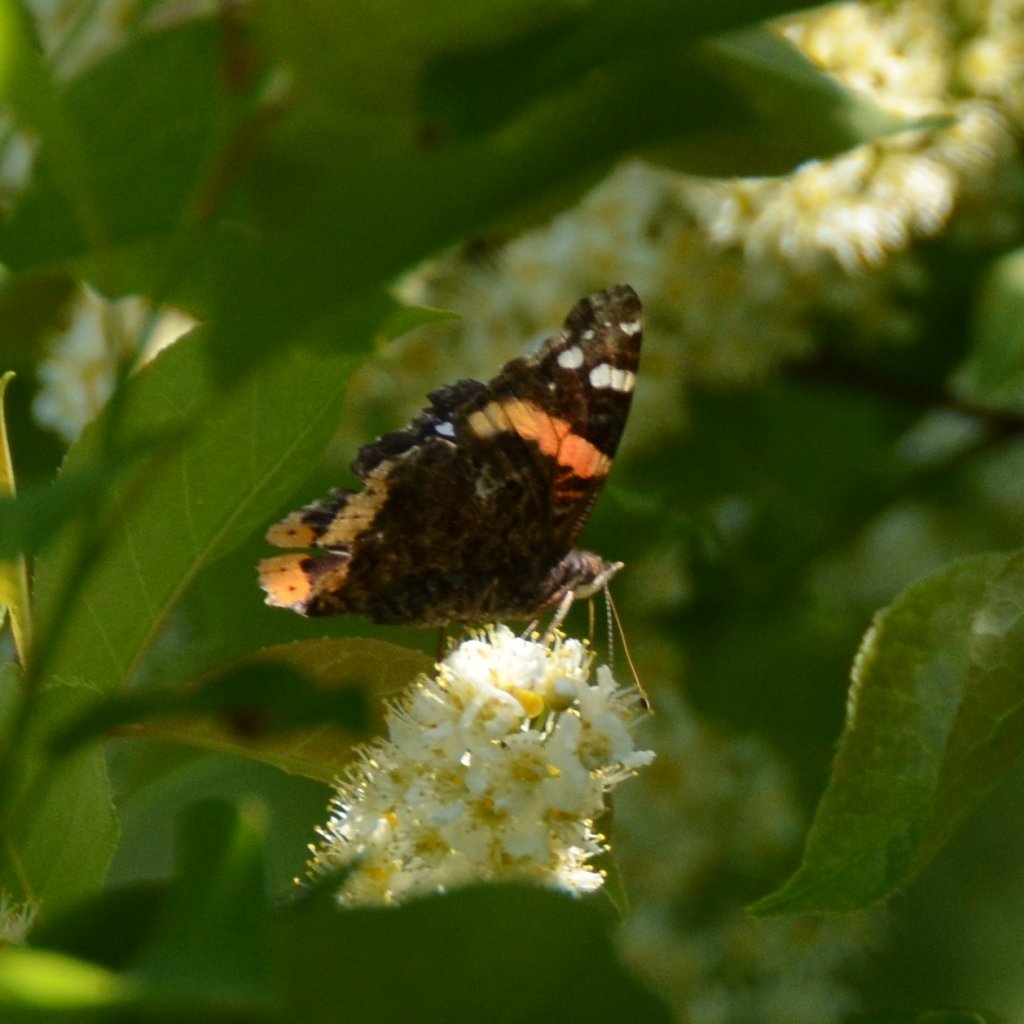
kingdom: Animalia
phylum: Arthropoda
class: Insecta
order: Lepidoptera
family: Nymphalidae
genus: Vanessa
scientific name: Vanessa atalanta
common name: Red Admiral
